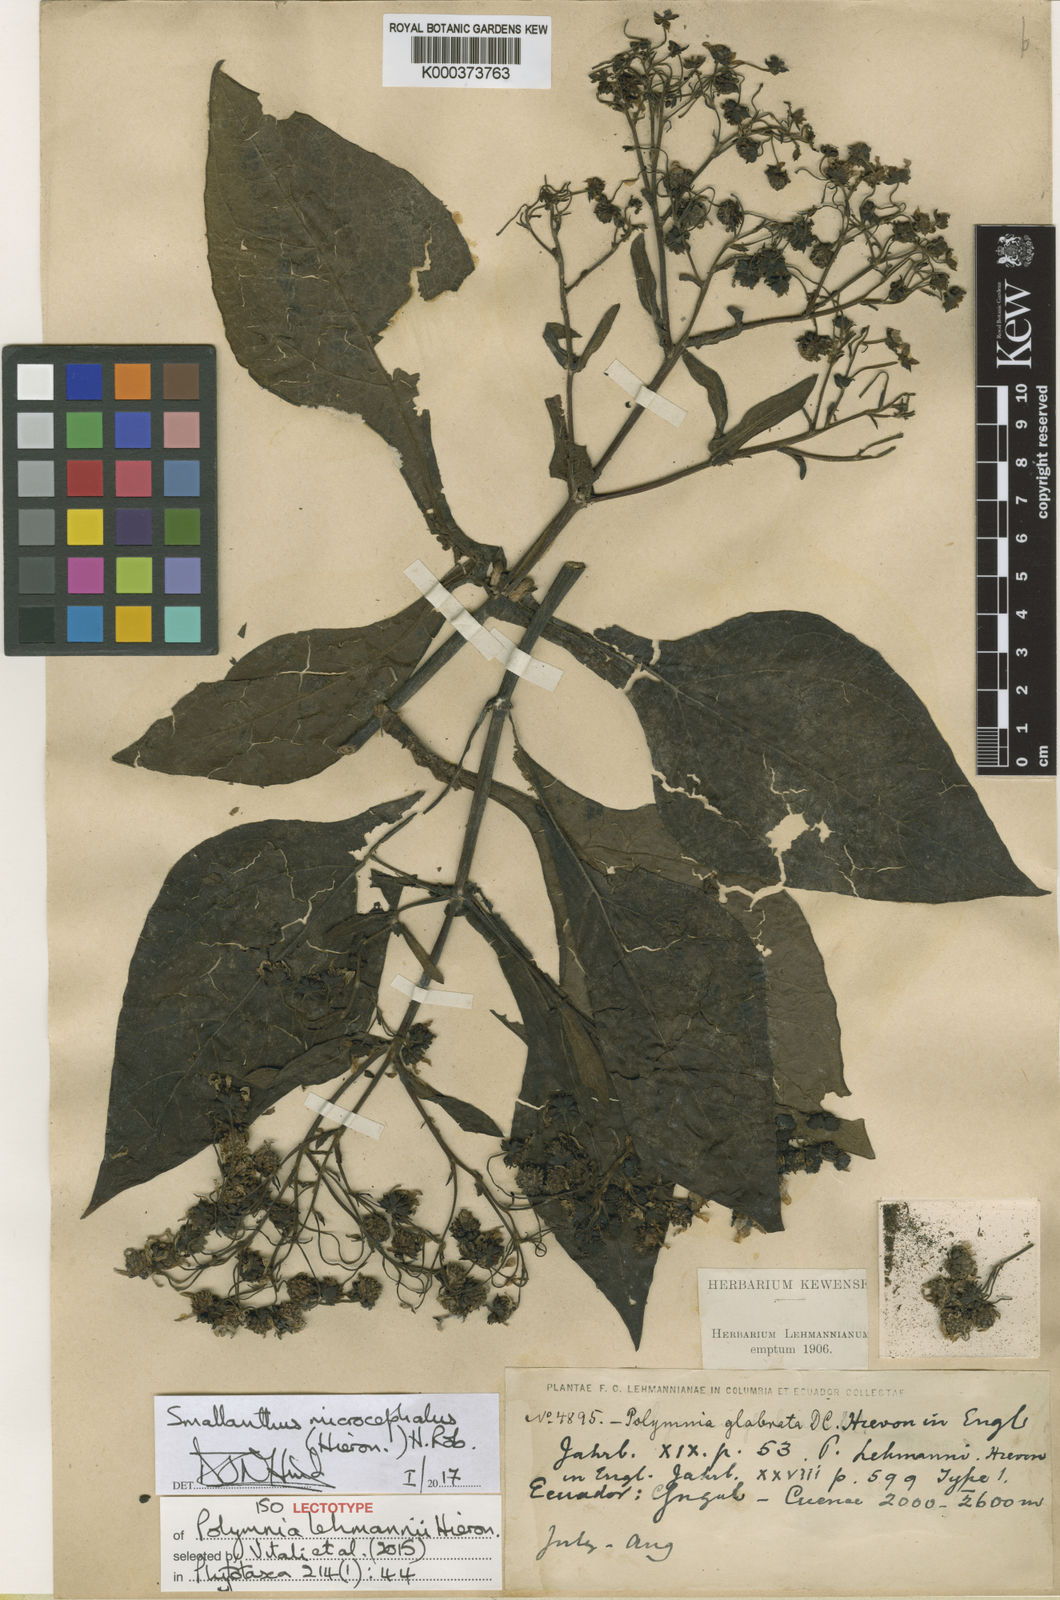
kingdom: Plantae
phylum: Tracheophyta
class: Magnoliopsida
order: Asterales
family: Asteraceae
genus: Smallanthus
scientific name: Smallanthus microcephalus
